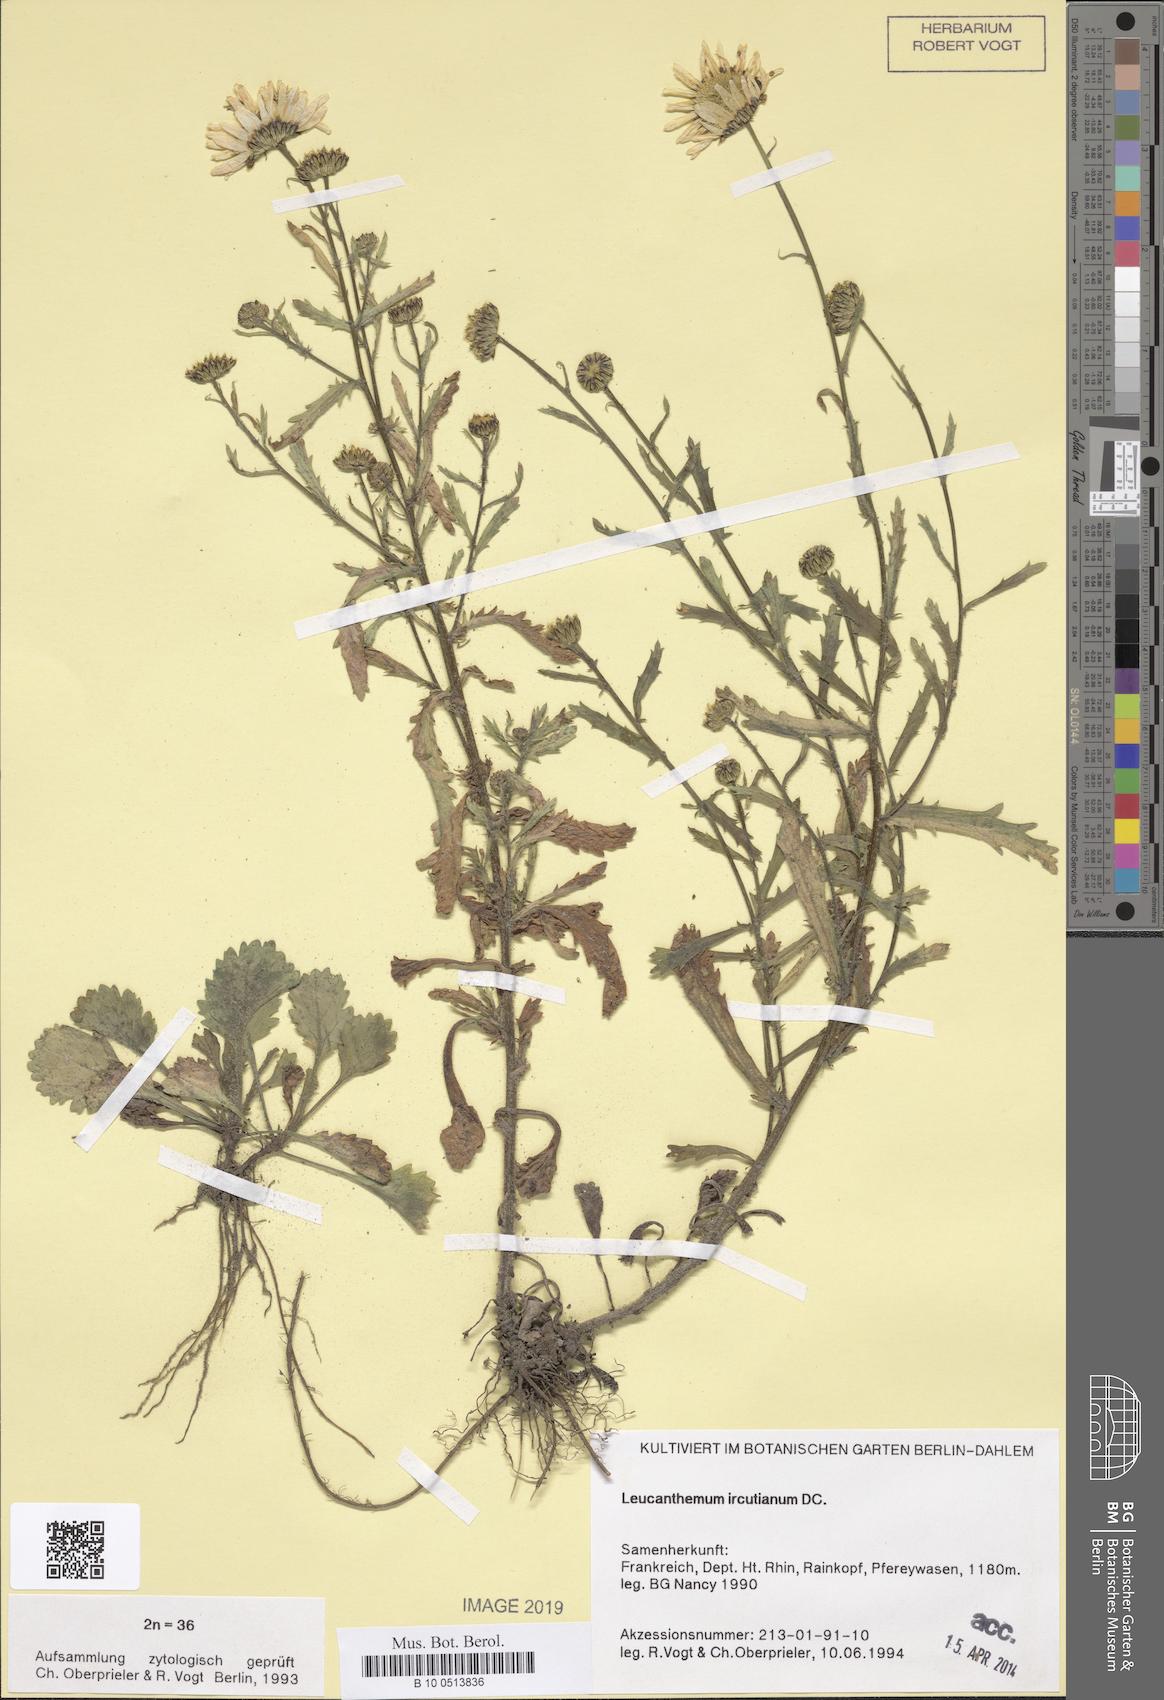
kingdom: Plantae
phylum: Tracheophyta
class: Magnoliopsida
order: Asterales
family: Asteraceae
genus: Leucanthemum
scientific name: Leucanthemum ircutianum
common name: Daisy
